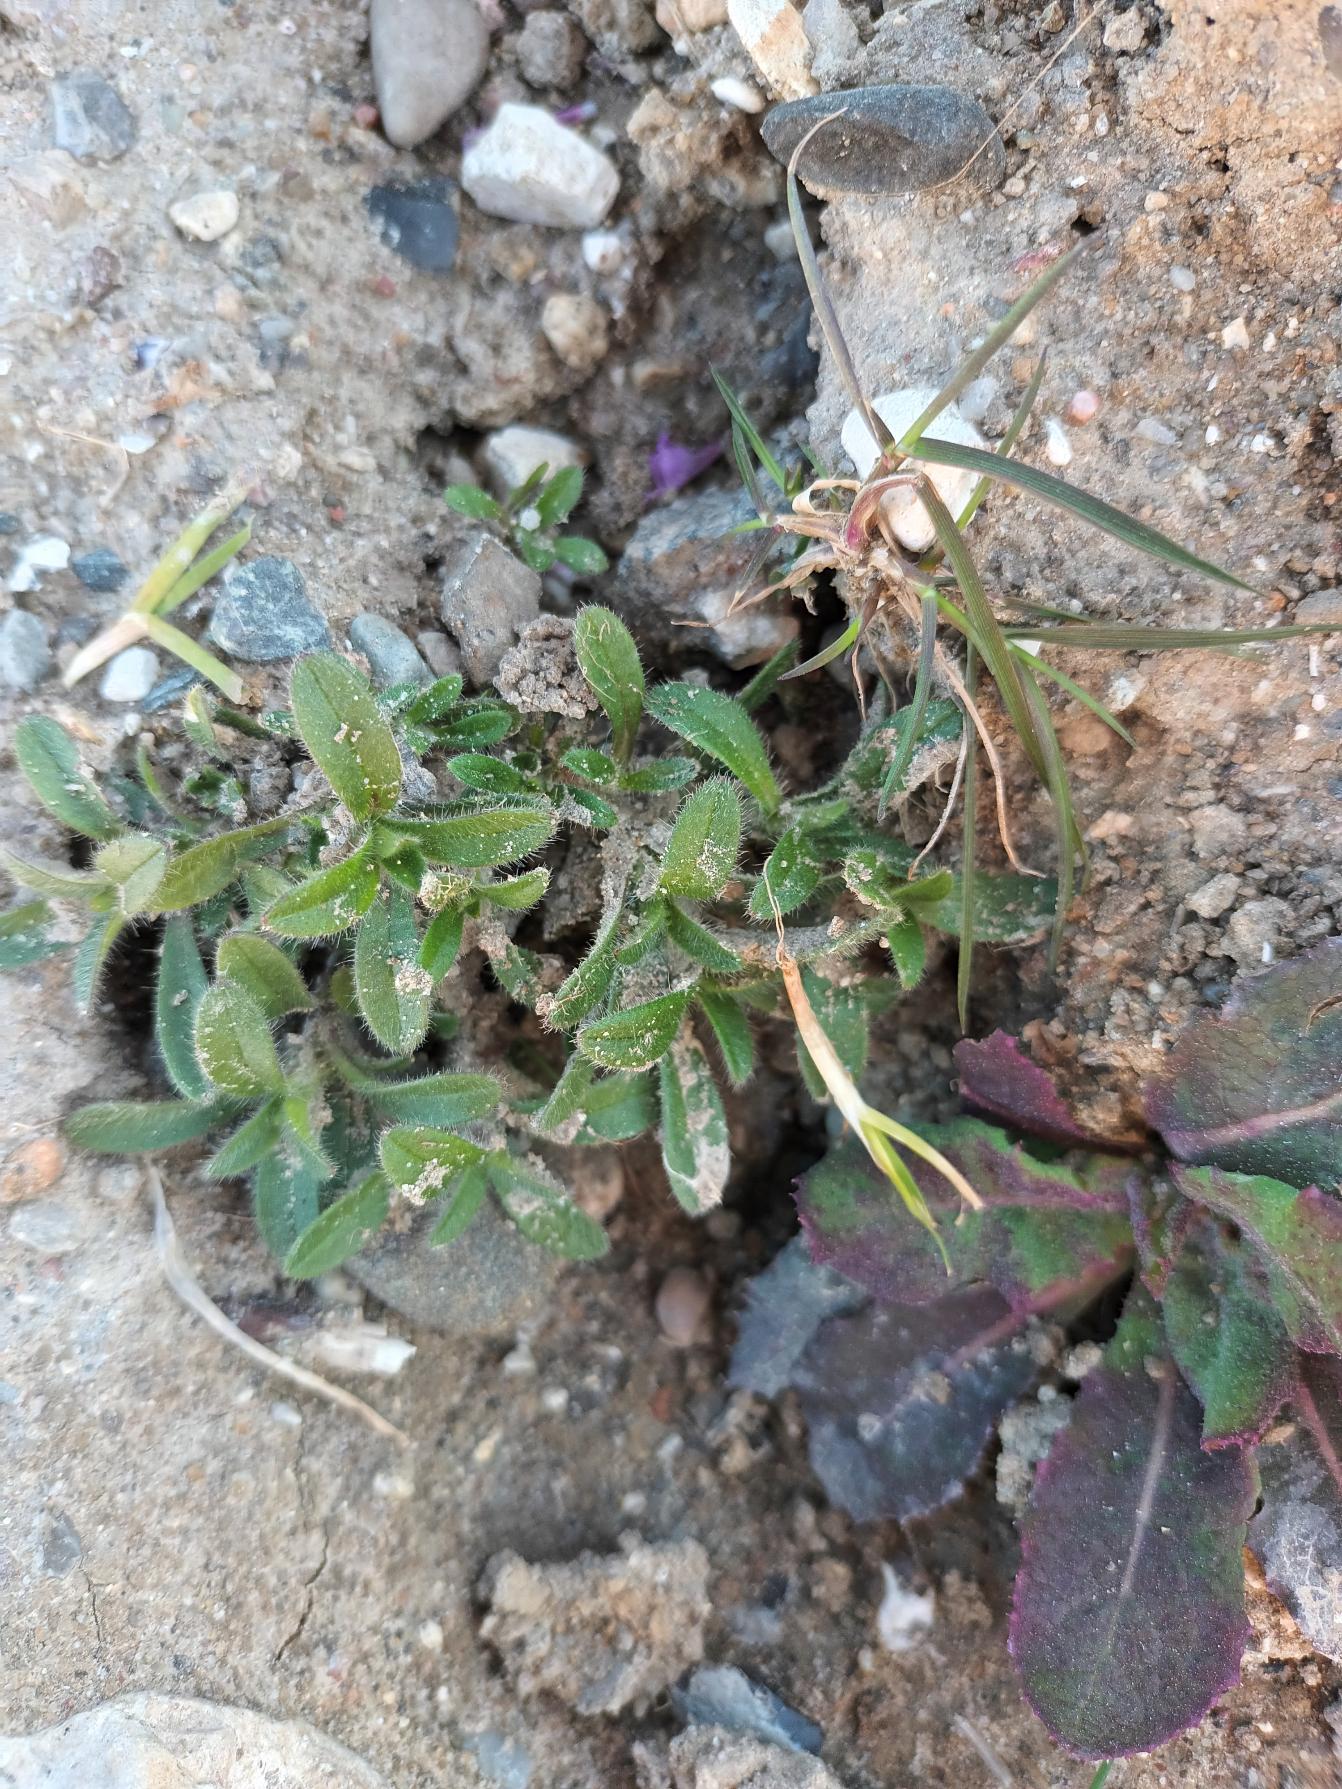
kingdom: Plantae
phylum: Tracheophyta
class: Magnoliopsida
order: Caryophyllales
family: Caryophyllaceae
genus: Cerastium
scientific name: Cerastium fontanum
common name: Almindelig hønsetarm
